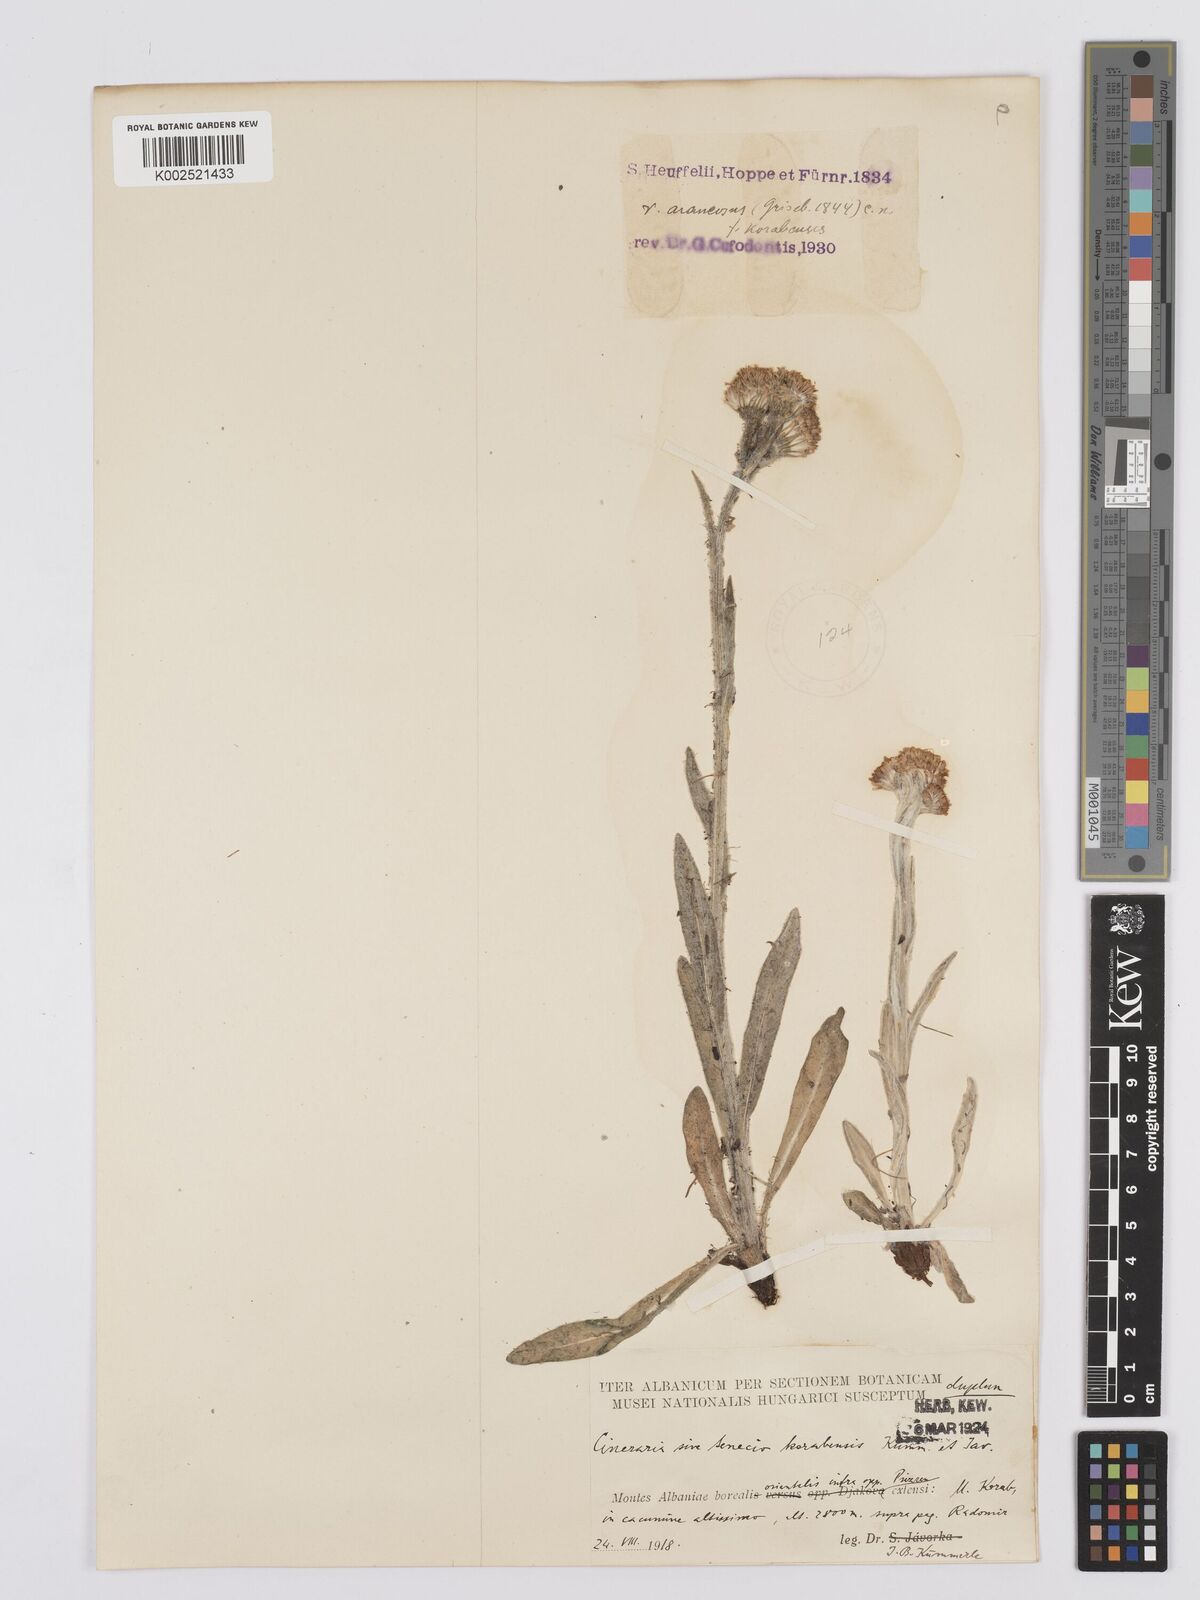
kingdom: Plantae
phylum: Tracheophyta
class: Magnoliopsida
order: Asterales
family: Asteraceae
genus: Tephroseris
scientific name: Tephroseris integrifolia
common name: Field fleawort
